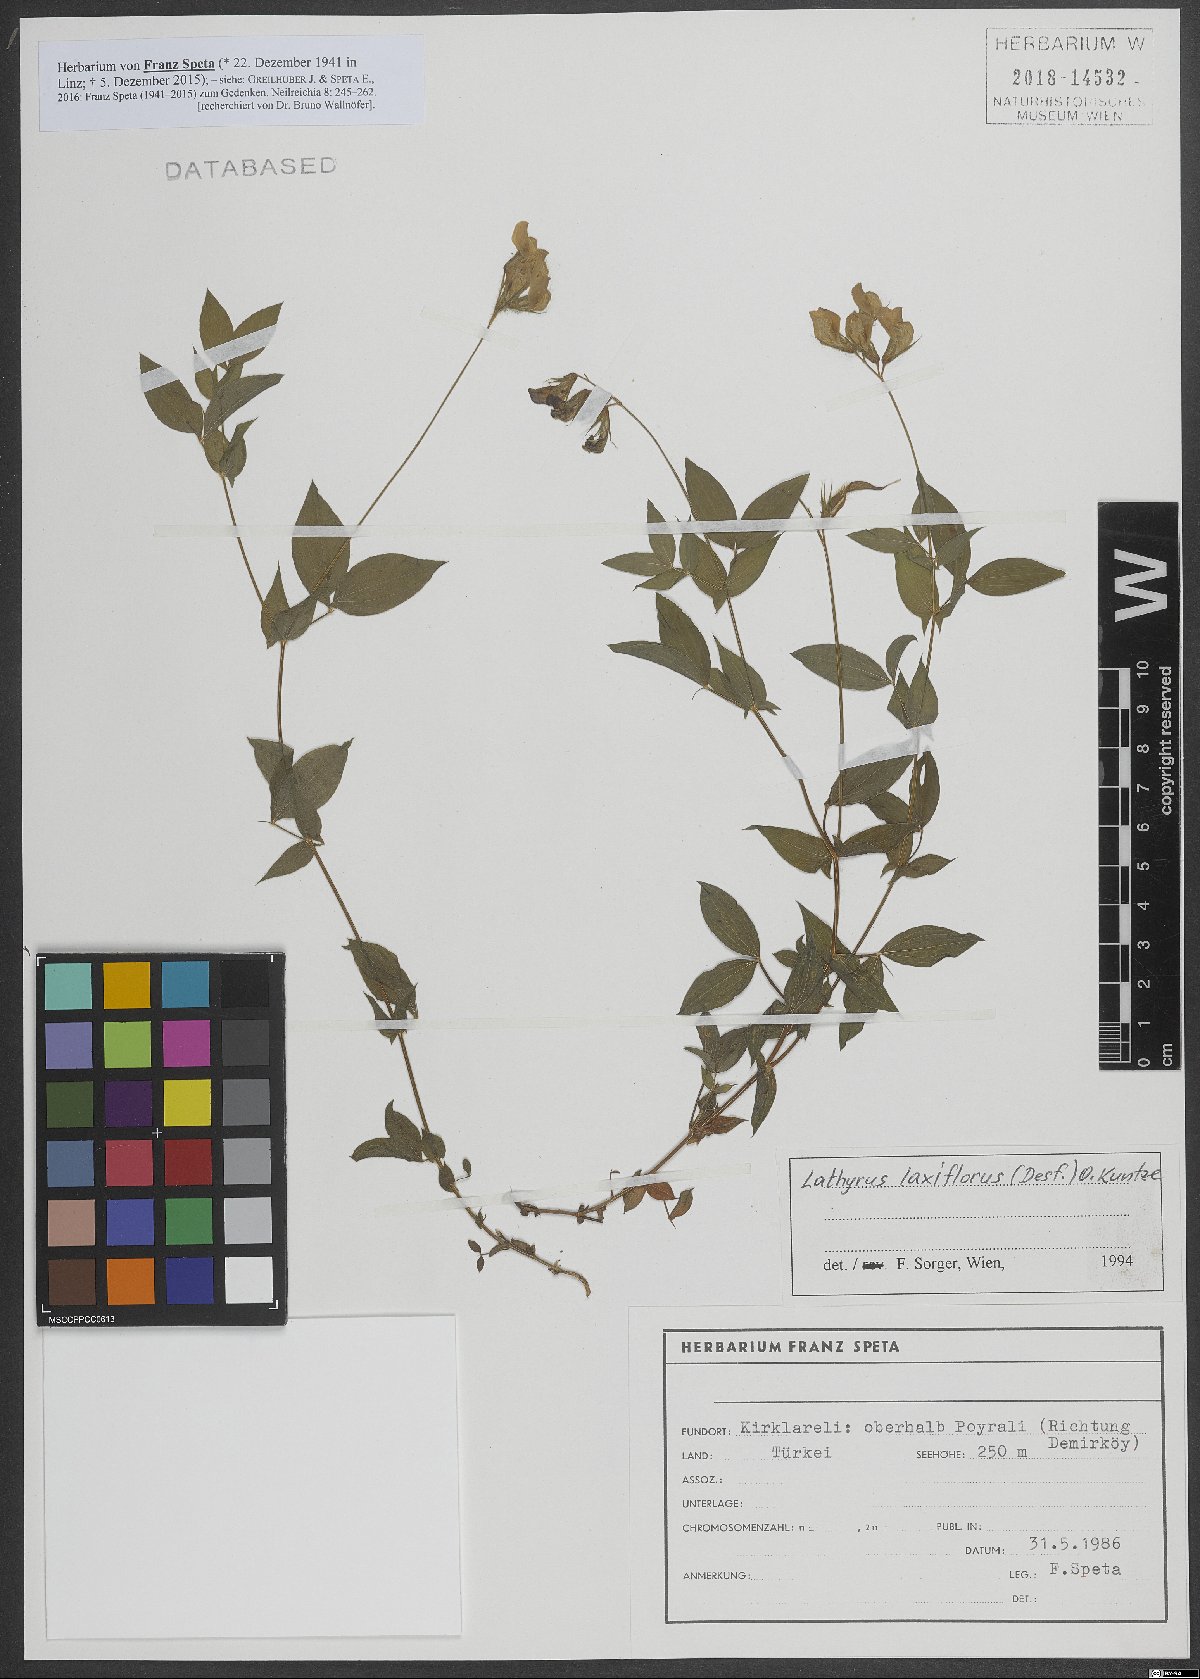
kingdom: Plantae
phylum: Tracheophyta
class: Magnoliopsida
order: Fabales
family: Fabaceae
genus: Lathyrus
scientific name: Lathyrus laxiflorus
